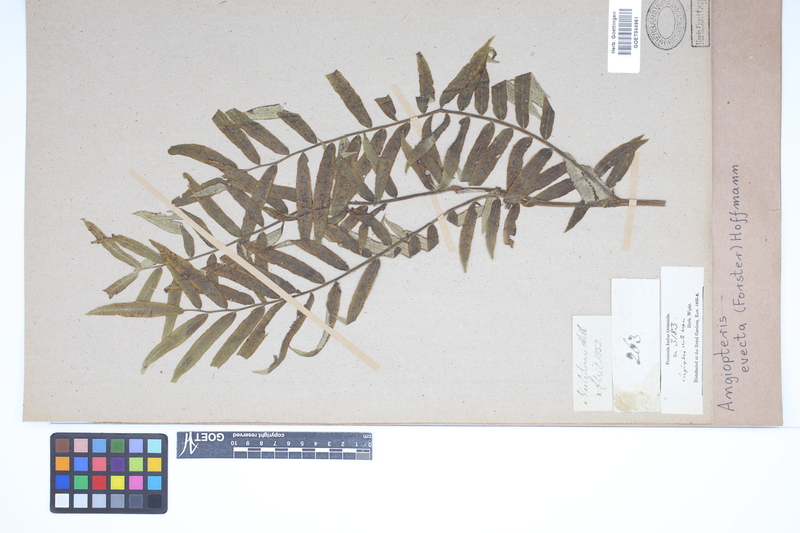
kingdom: Plantae
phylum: Tracheophyta
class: Polypodiopsida
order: Marattiales
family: Marattiaceae
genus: Angiopteris
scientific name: Angiopteris evecta
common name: Mule's-foot fern
